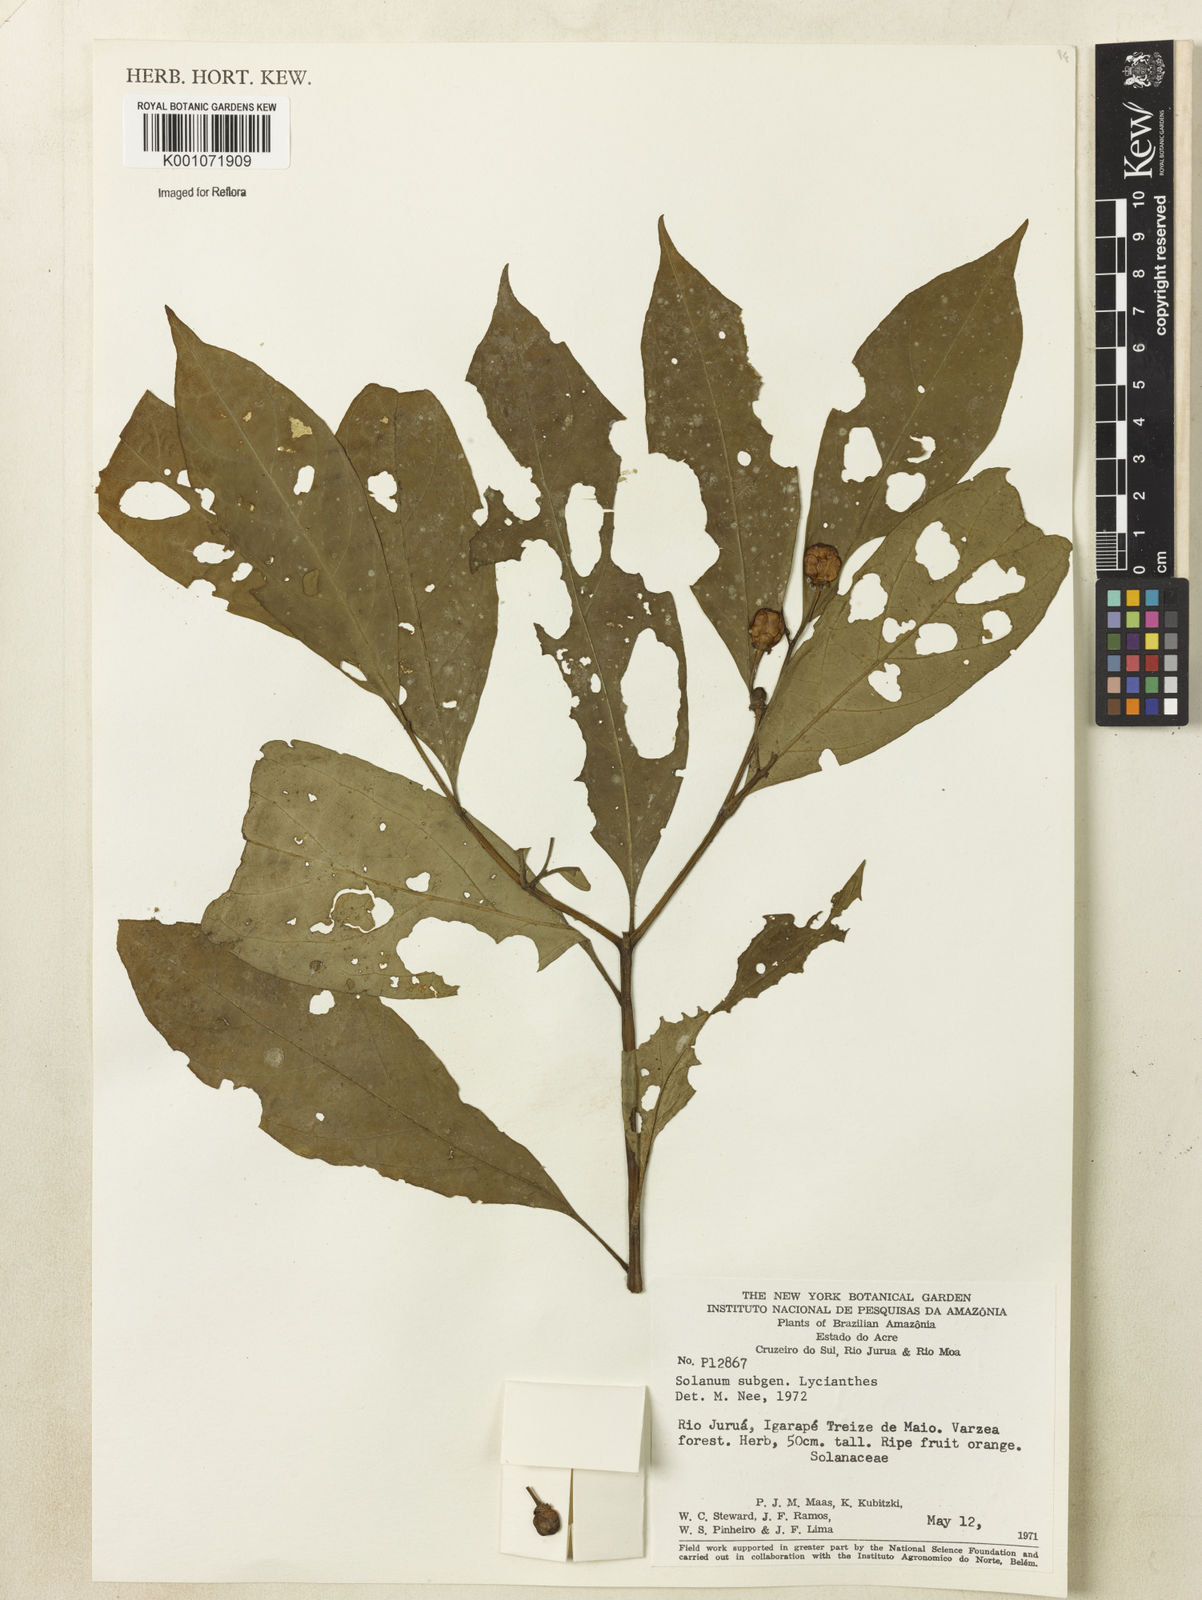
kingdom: Plantae
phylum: Tracheophyta
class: Magnoliopsida
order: Solanales
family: Solanaceae
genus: Lycianthes
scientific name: Lycianthes
